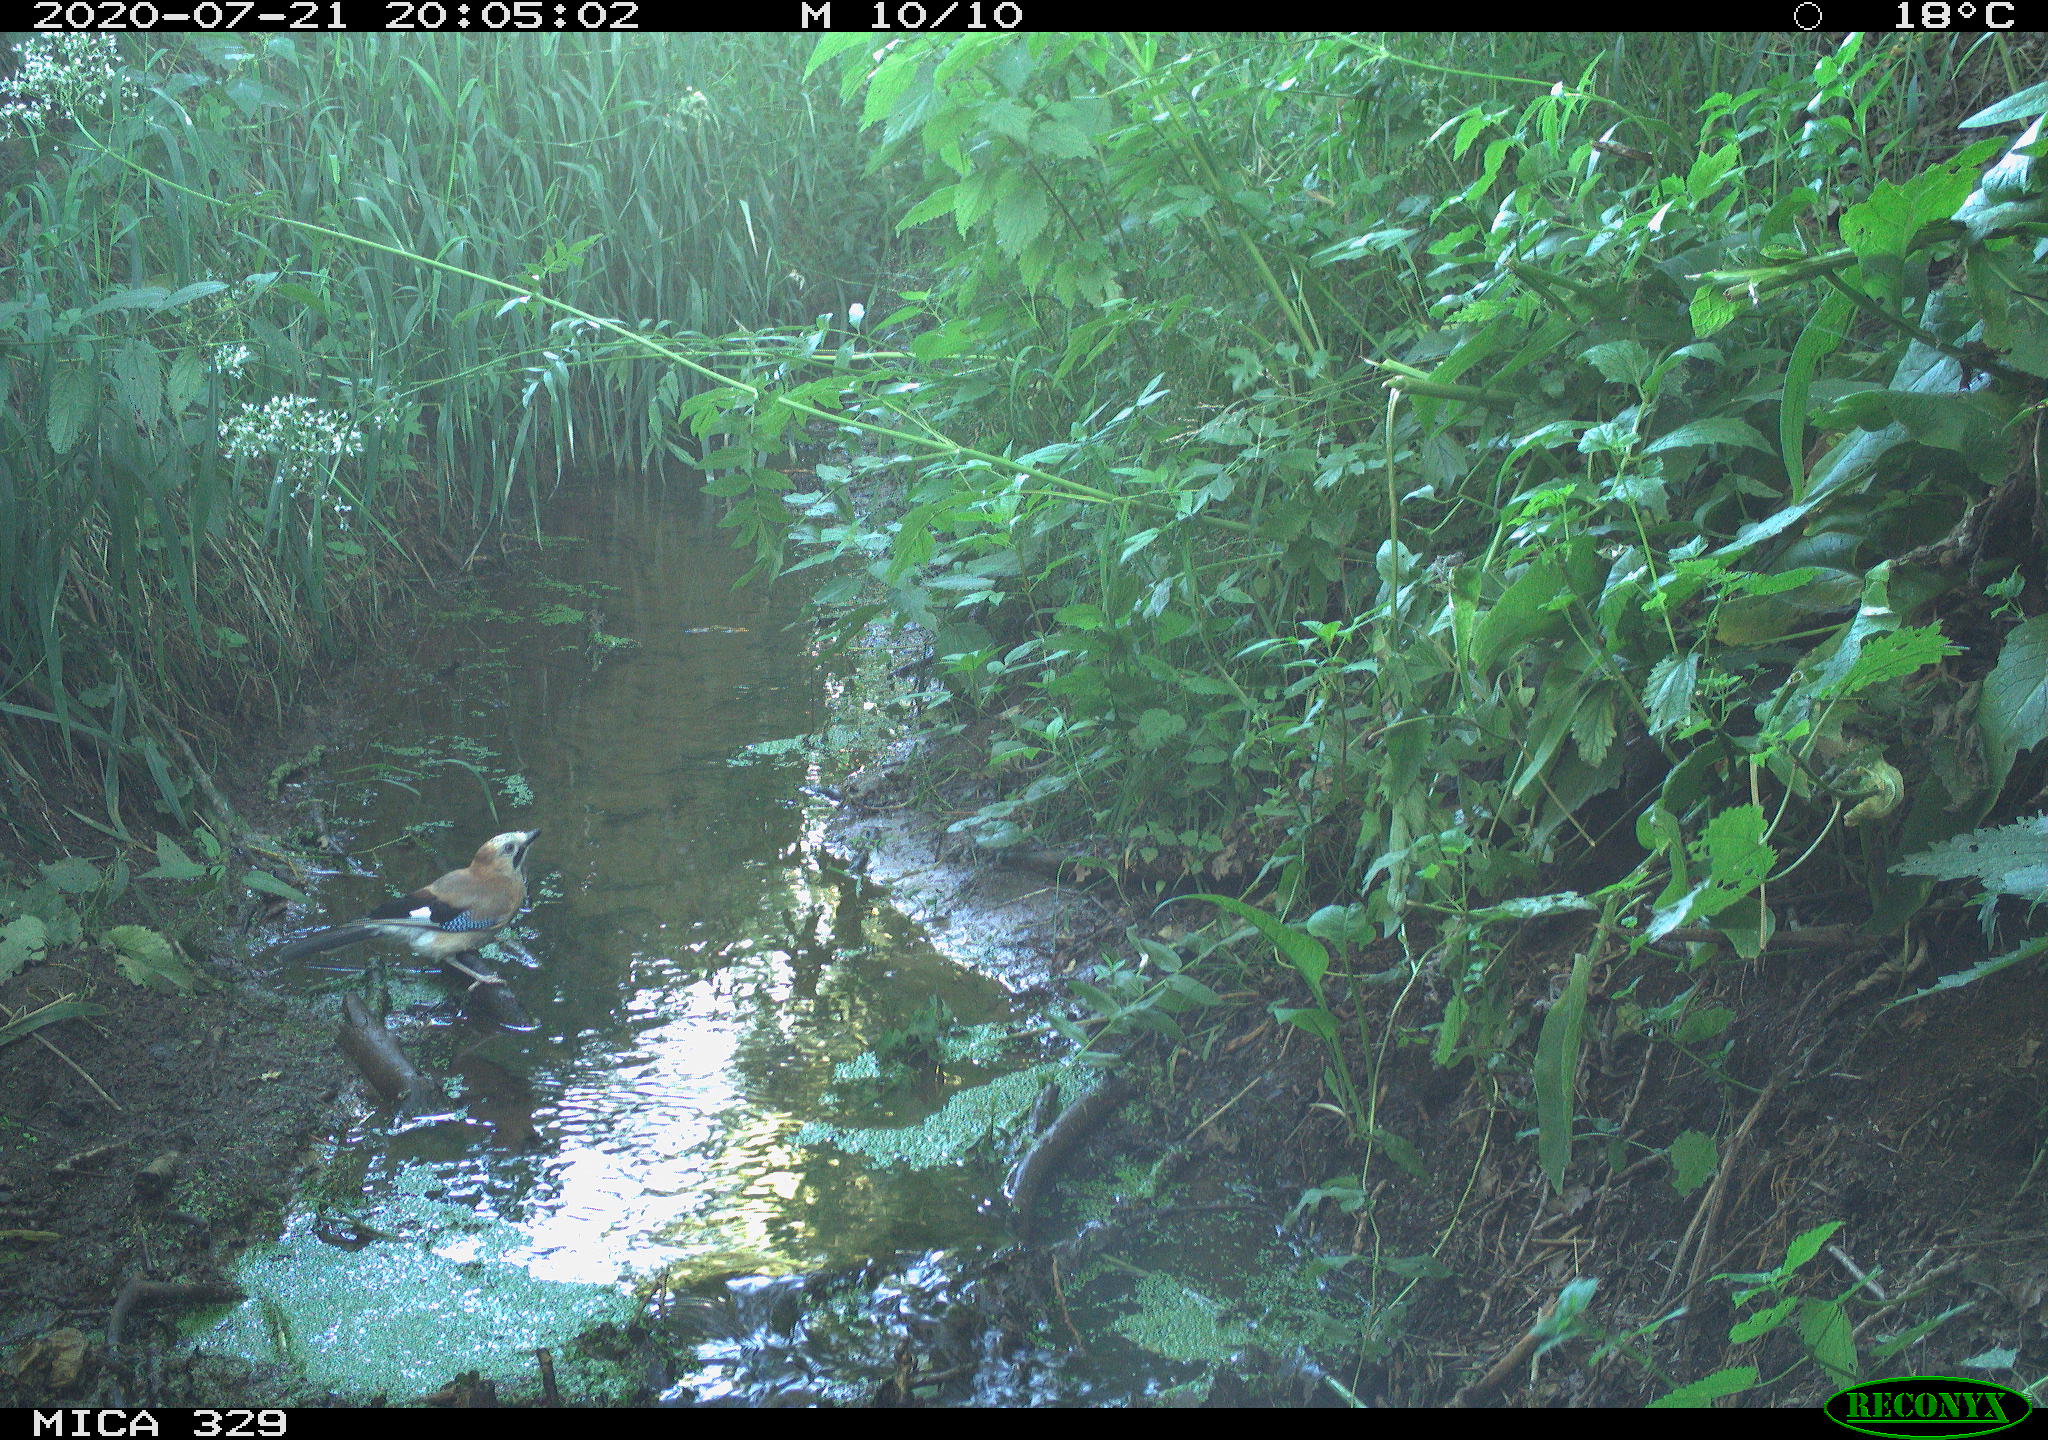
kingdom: Animalia
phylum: Chordata
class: Aves
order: Passeriformes
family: Corvidae
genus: Garrulus
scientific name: Garrulus glandarius
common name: Eurasian jay
